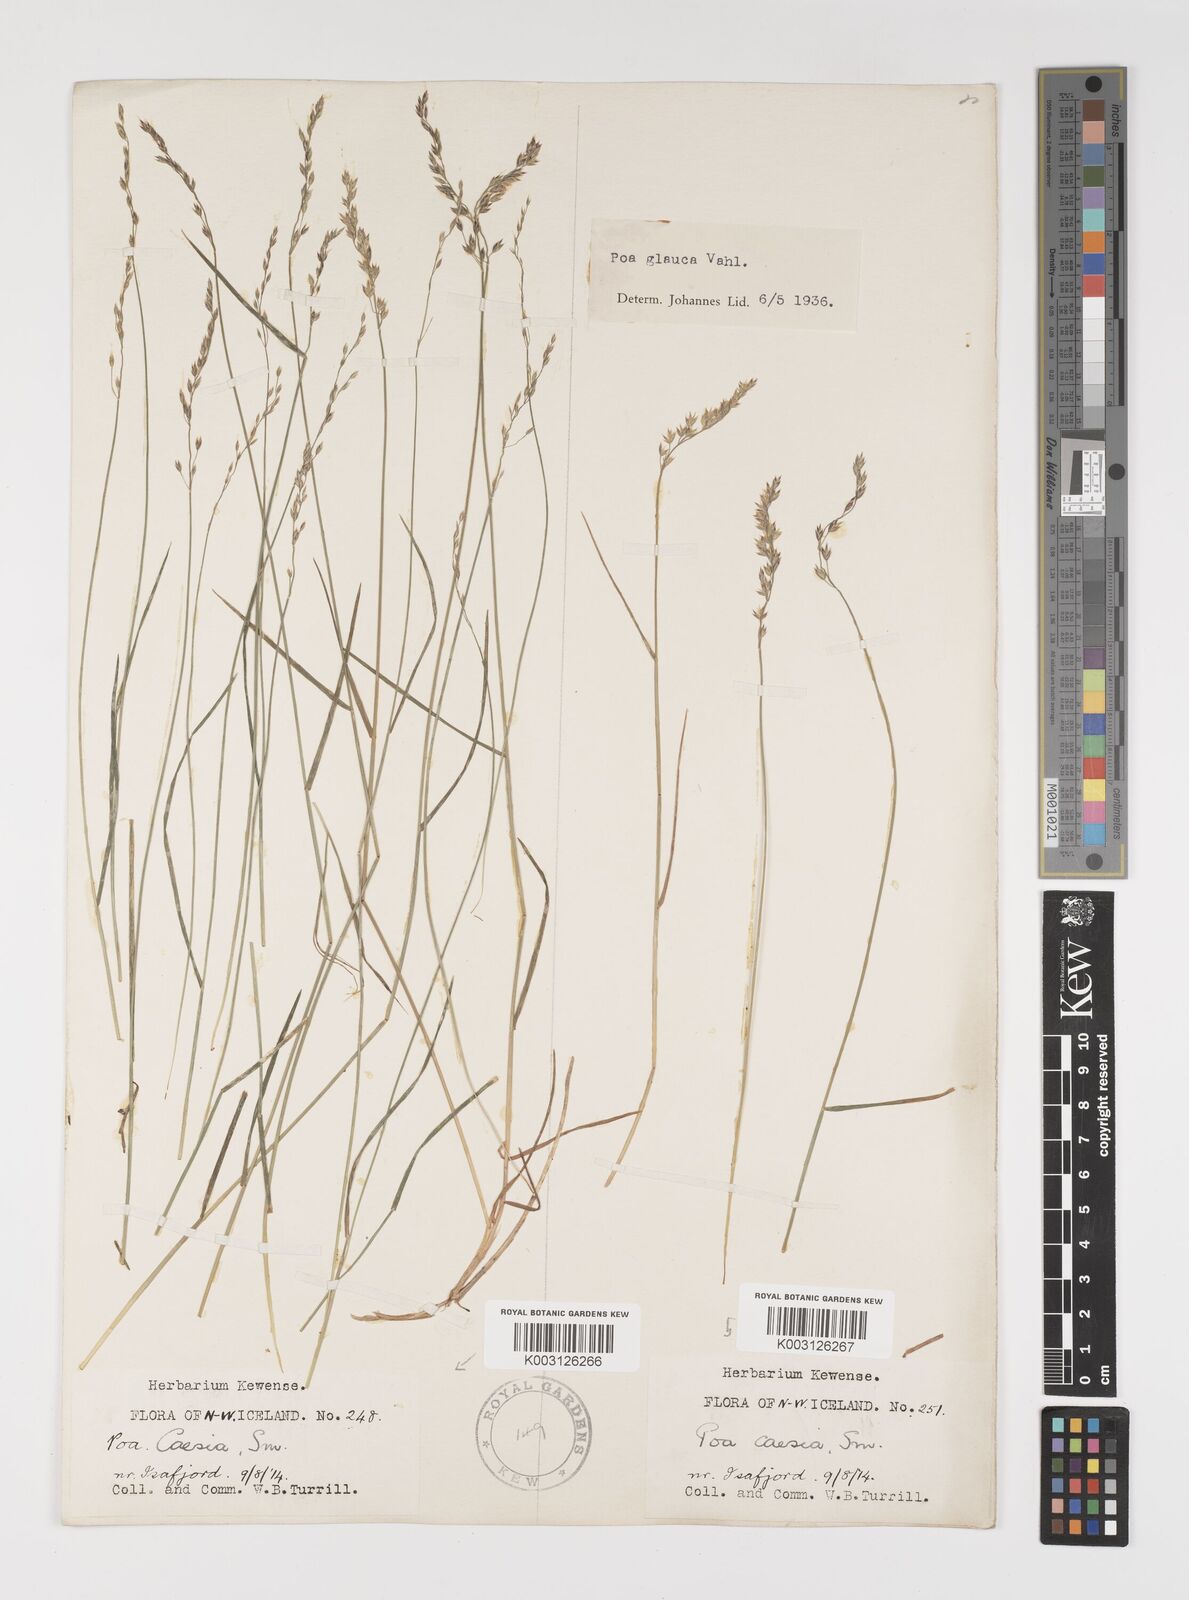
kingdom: Plantae
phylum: Tracheophyta
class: Liliopsida
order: Poales
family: Poaceae
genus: Poa
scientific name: Poa glauca
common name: Glaucous bluegrass
